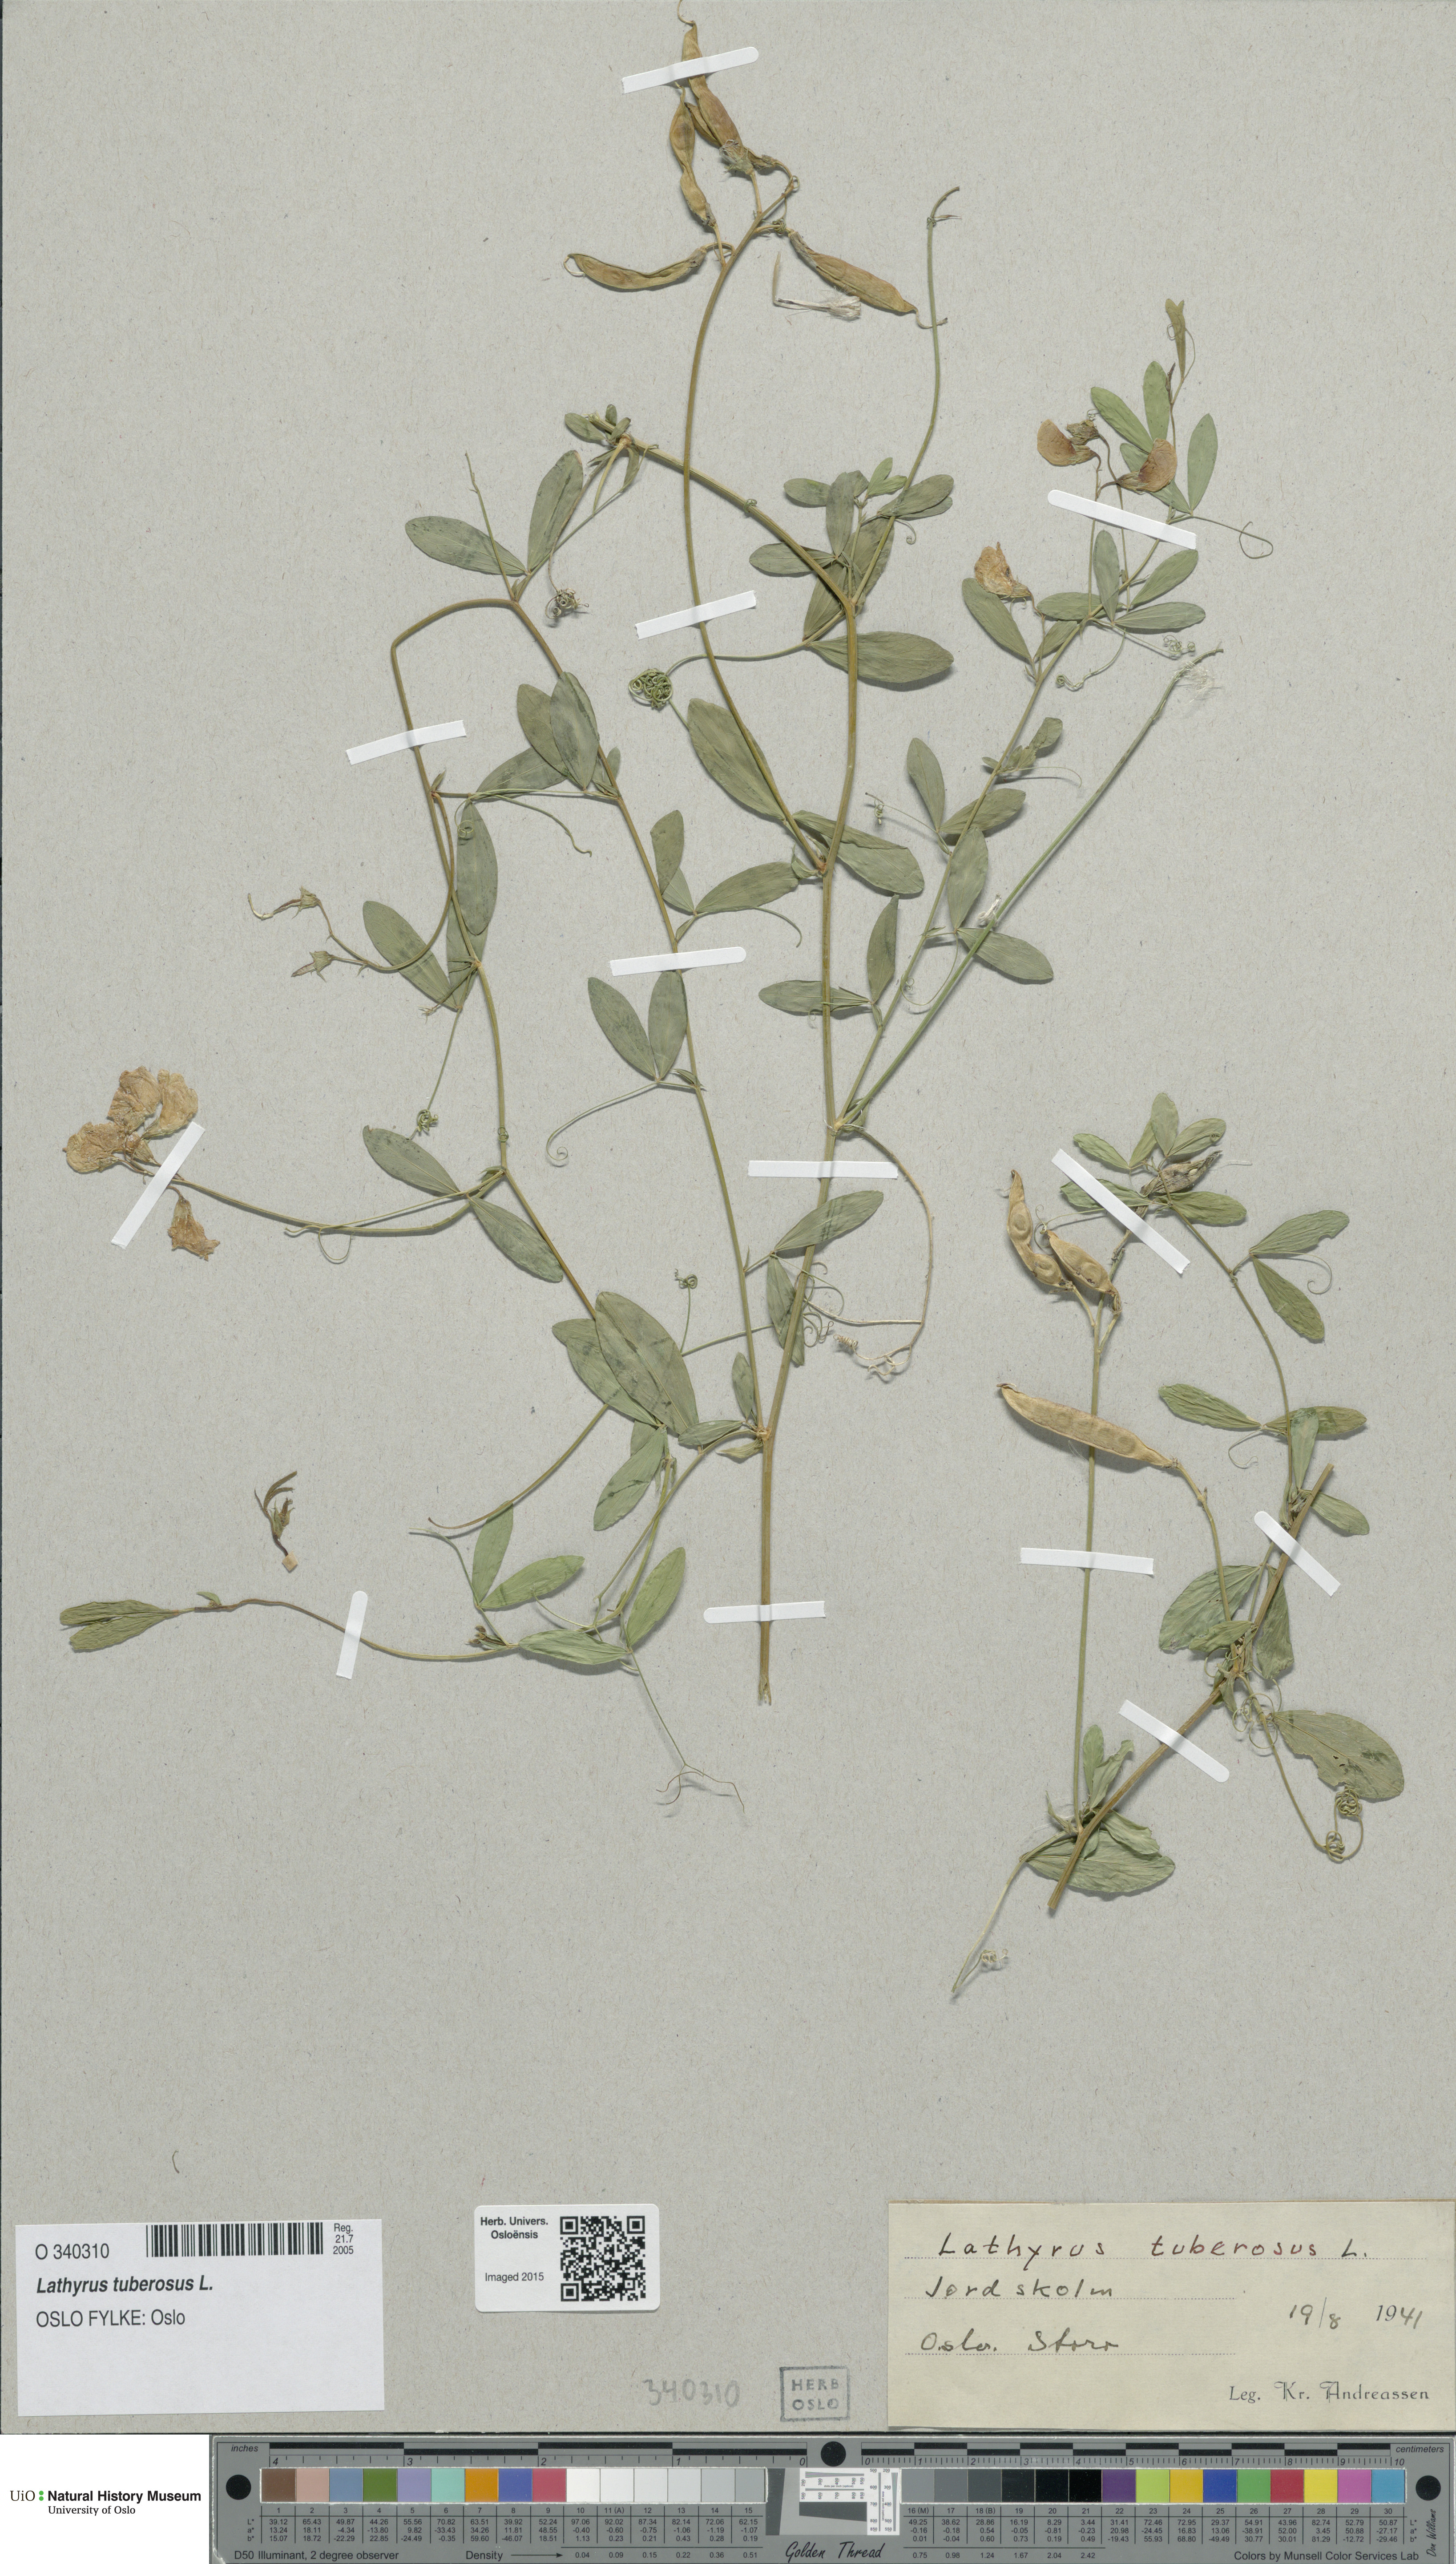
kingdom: Plantae
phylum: Tracheophyta
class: Magnoliopsida
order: Fabales
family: Fabaceae
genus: Lathyrus
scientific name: Lathyrus tuberosus
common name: Tuberous pea
